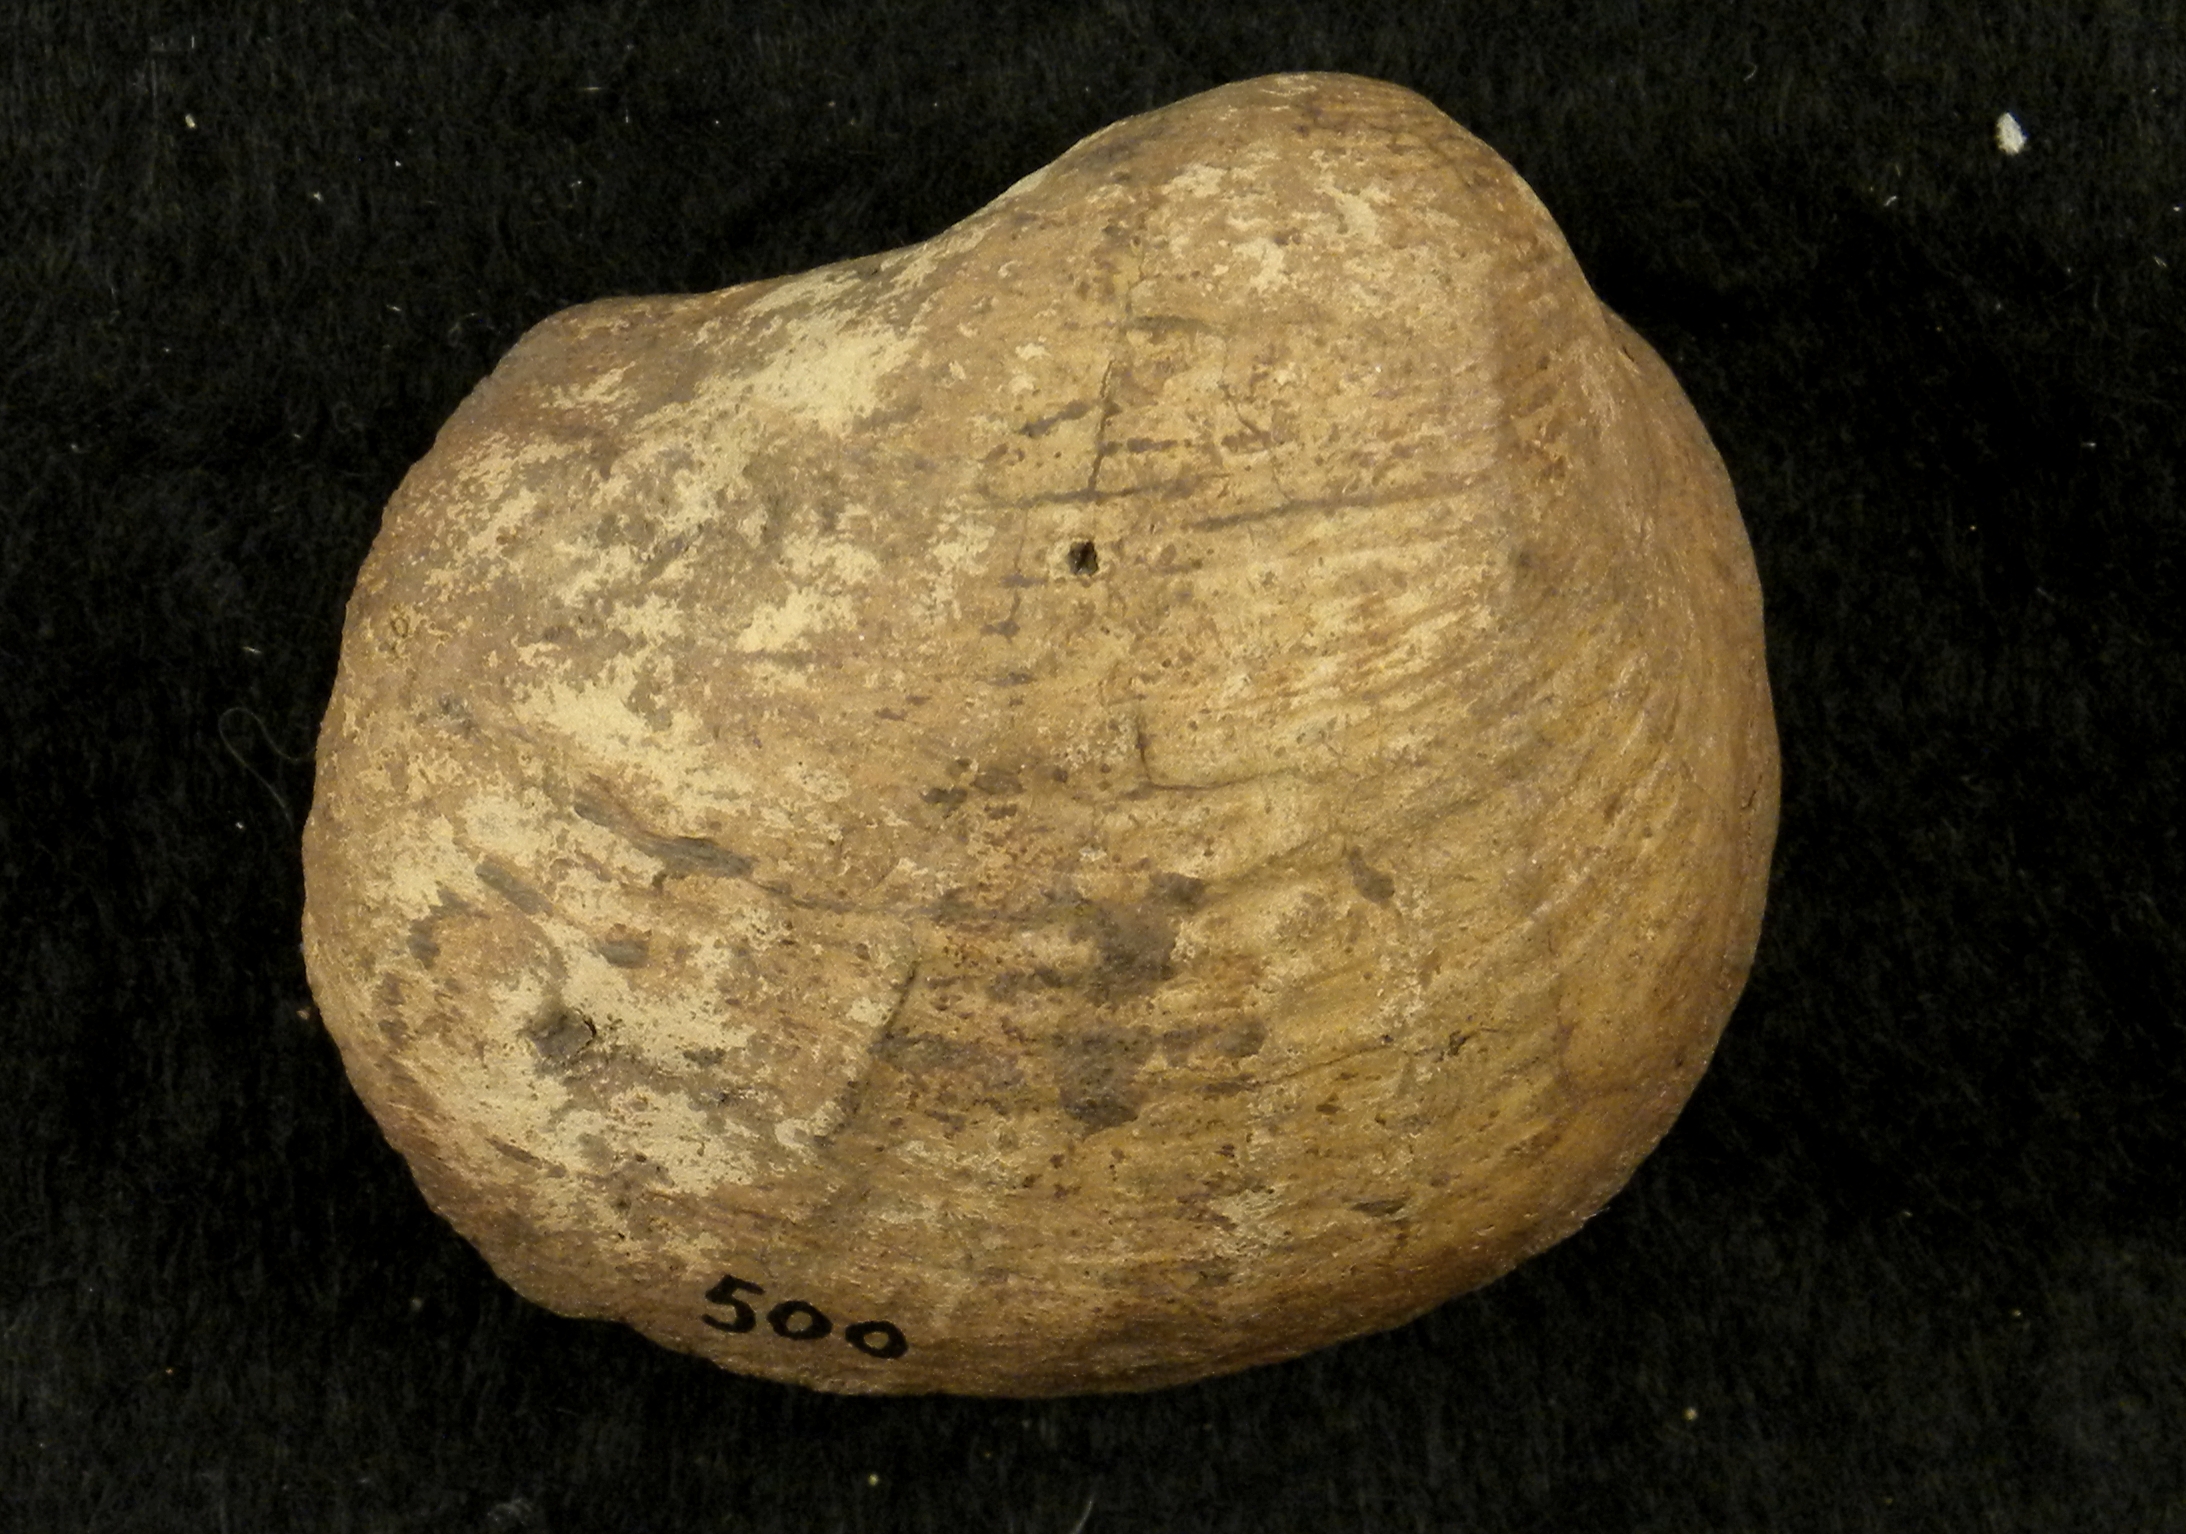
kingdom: Animalia
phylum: Mollusca
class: Bivalvia
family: Pholadomyidae
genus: Pholadomya
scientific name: Pholadomya
